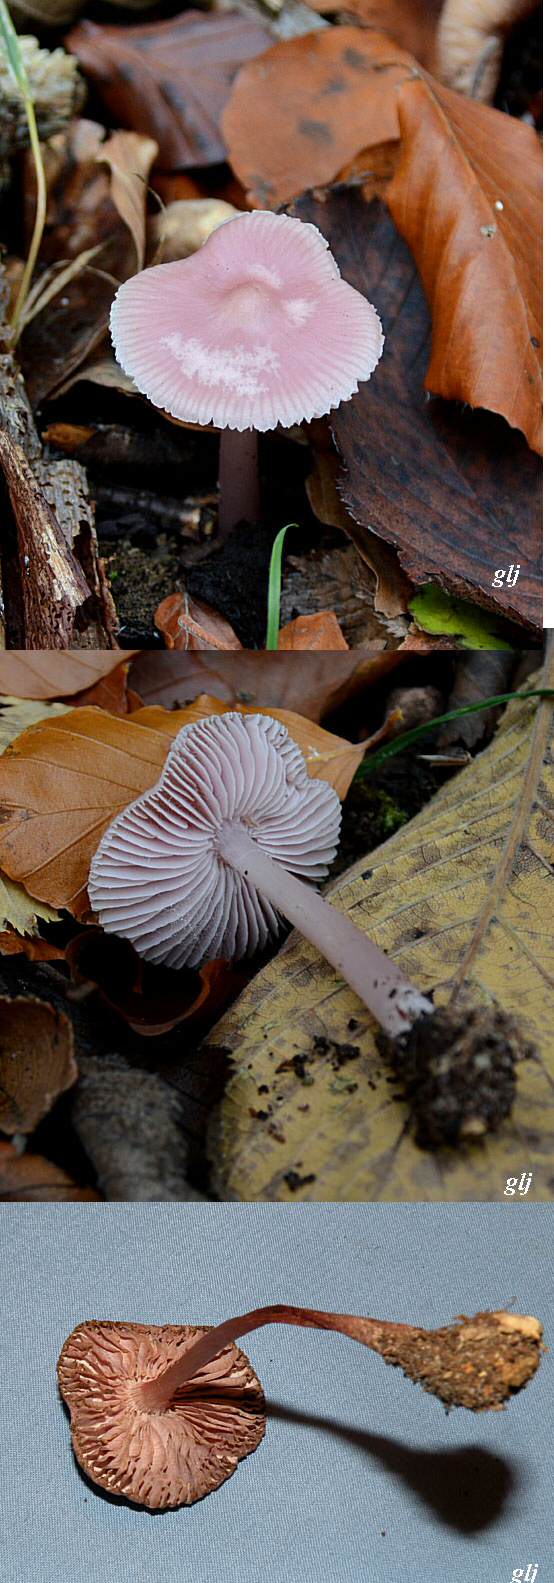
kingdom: Fungi
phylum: Basidiomycota
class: Agaricomycetes
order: Agaricales
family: Mycenaceae
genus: Mycena
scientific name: Mycena rosea
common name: rosa huesvamp
